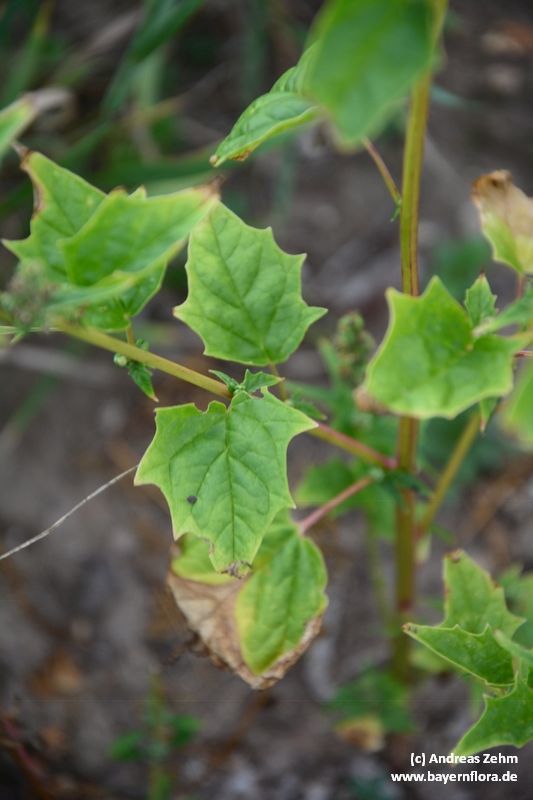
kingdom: Plantae
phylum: Tracheophyta
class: Magnoliopsida
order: Caryophyllales
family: Amaranthaceae
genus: Chenopodiastrum
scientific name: Chenopodiastrum hybridum
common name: Mapleleaf goosefoot
